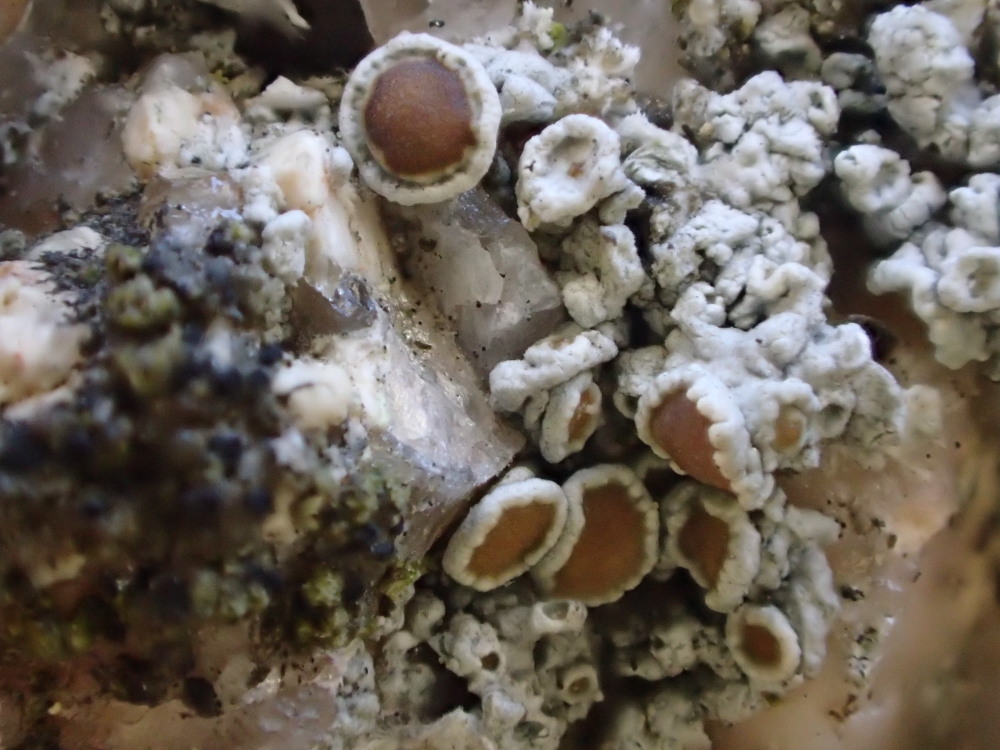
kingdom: Fungi
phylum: Ascomycota
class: Lecanoromycetes
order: Lecanorales
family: Lecanoraceae
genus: Polyozosia
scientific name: Polyozosia dispersa
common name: spredt kantskivelav
